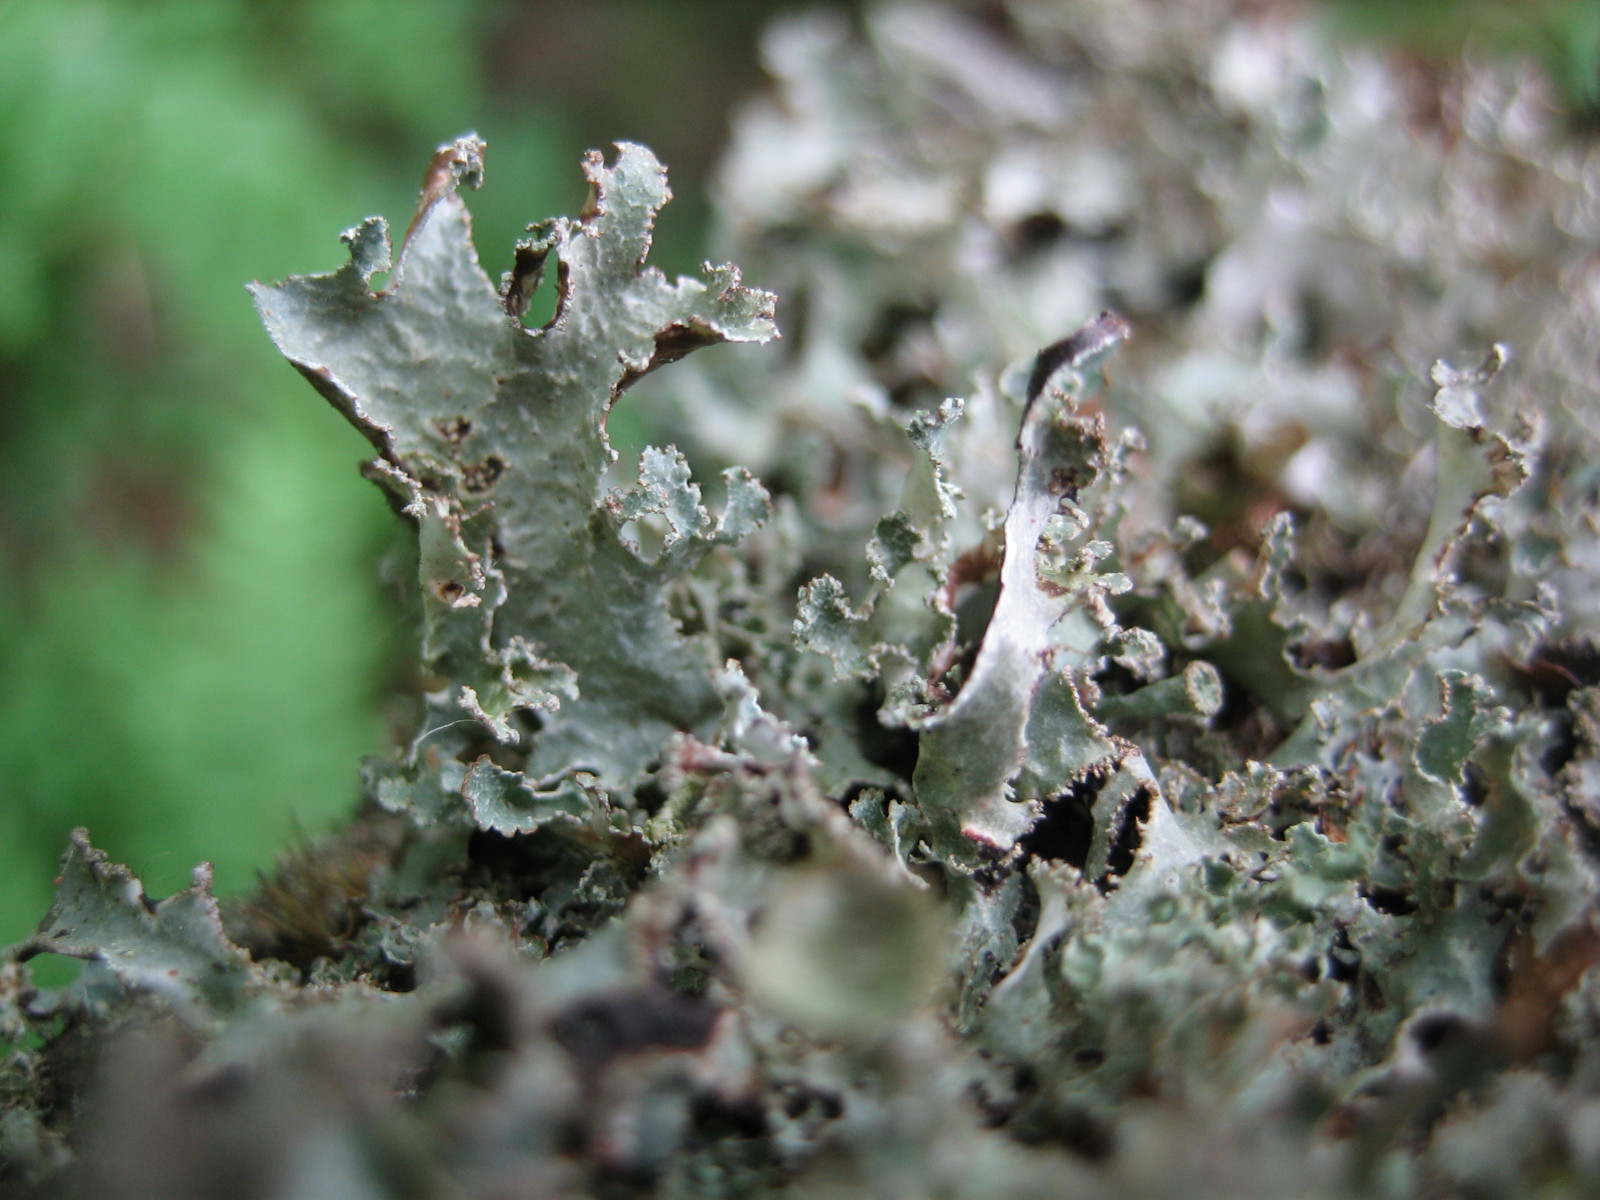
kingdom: Fungi
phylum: Ascomycota
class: Lecanoromycetes
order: Lecanorales
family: Parmeliaceae
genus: Platismatia
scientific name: Platismatia glauca
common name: blågrå papirlav
